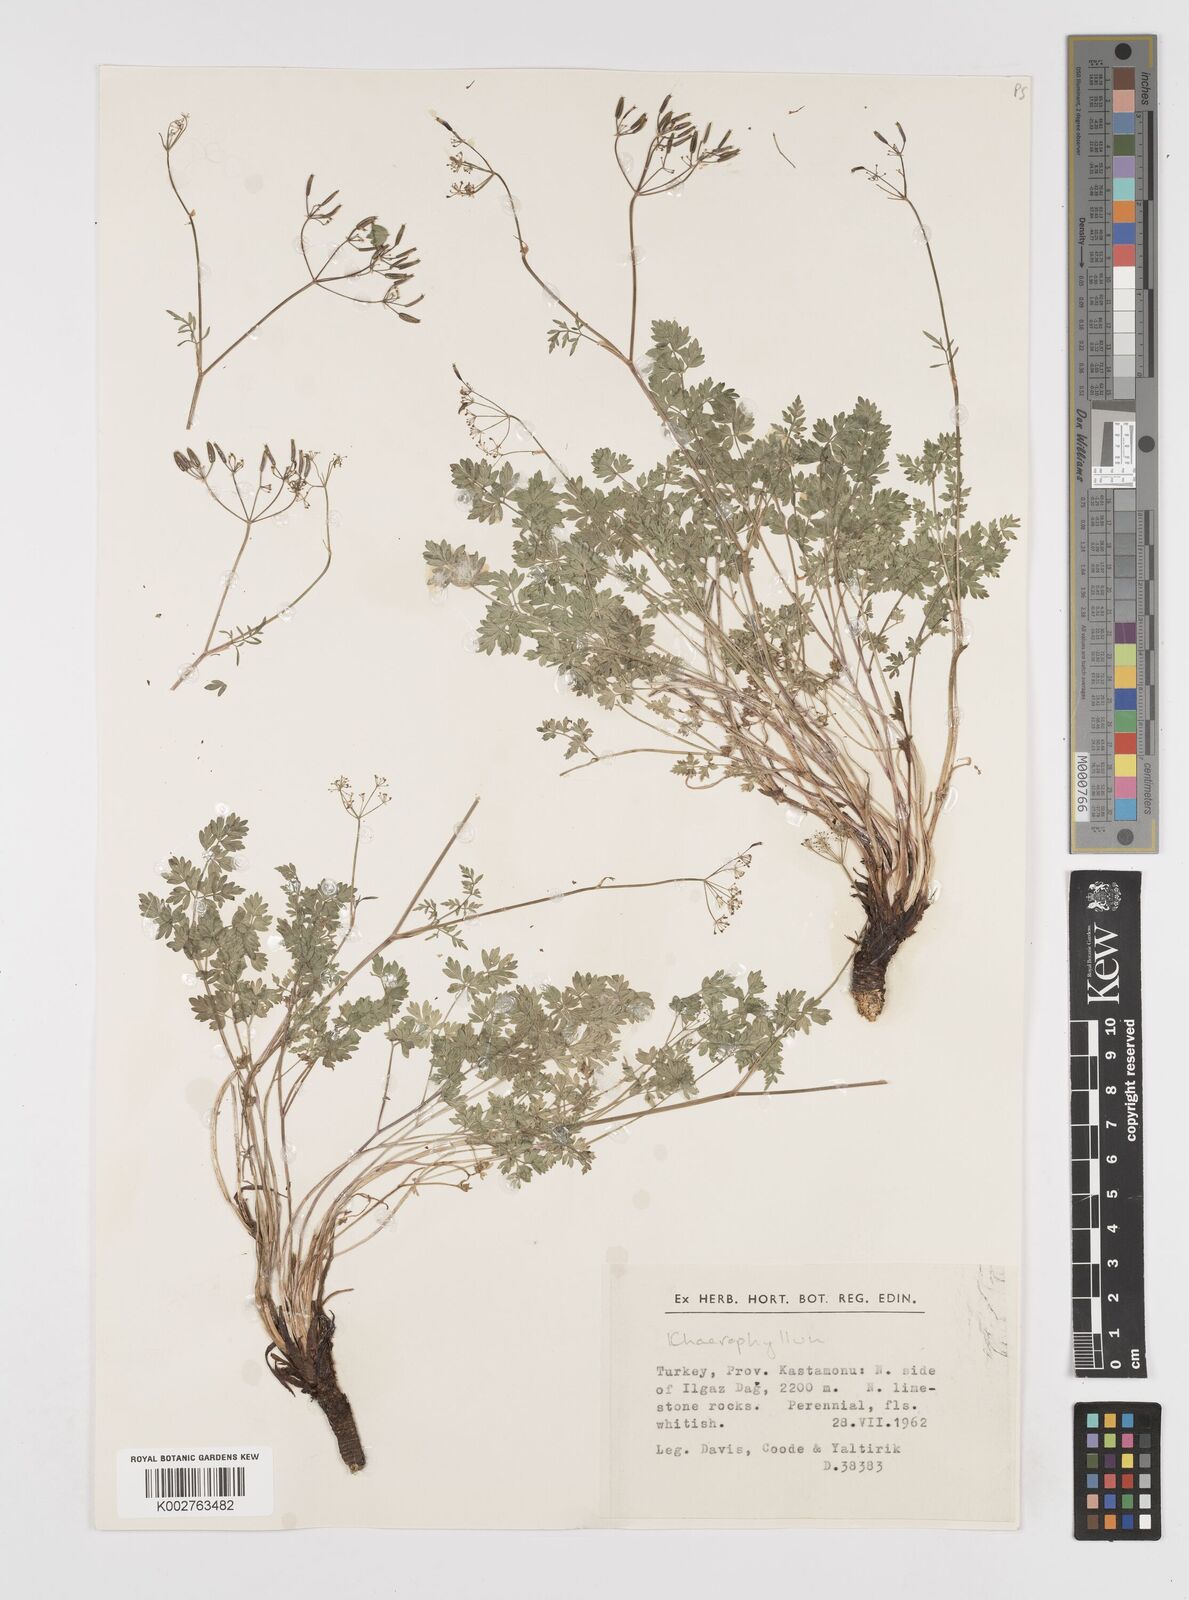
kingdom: Plantae
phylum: Tracheophyta
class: Magnoliopsida
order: Apiales
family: Apiaceae
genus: Anthriscus
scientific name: Anthriscus kotschyi
